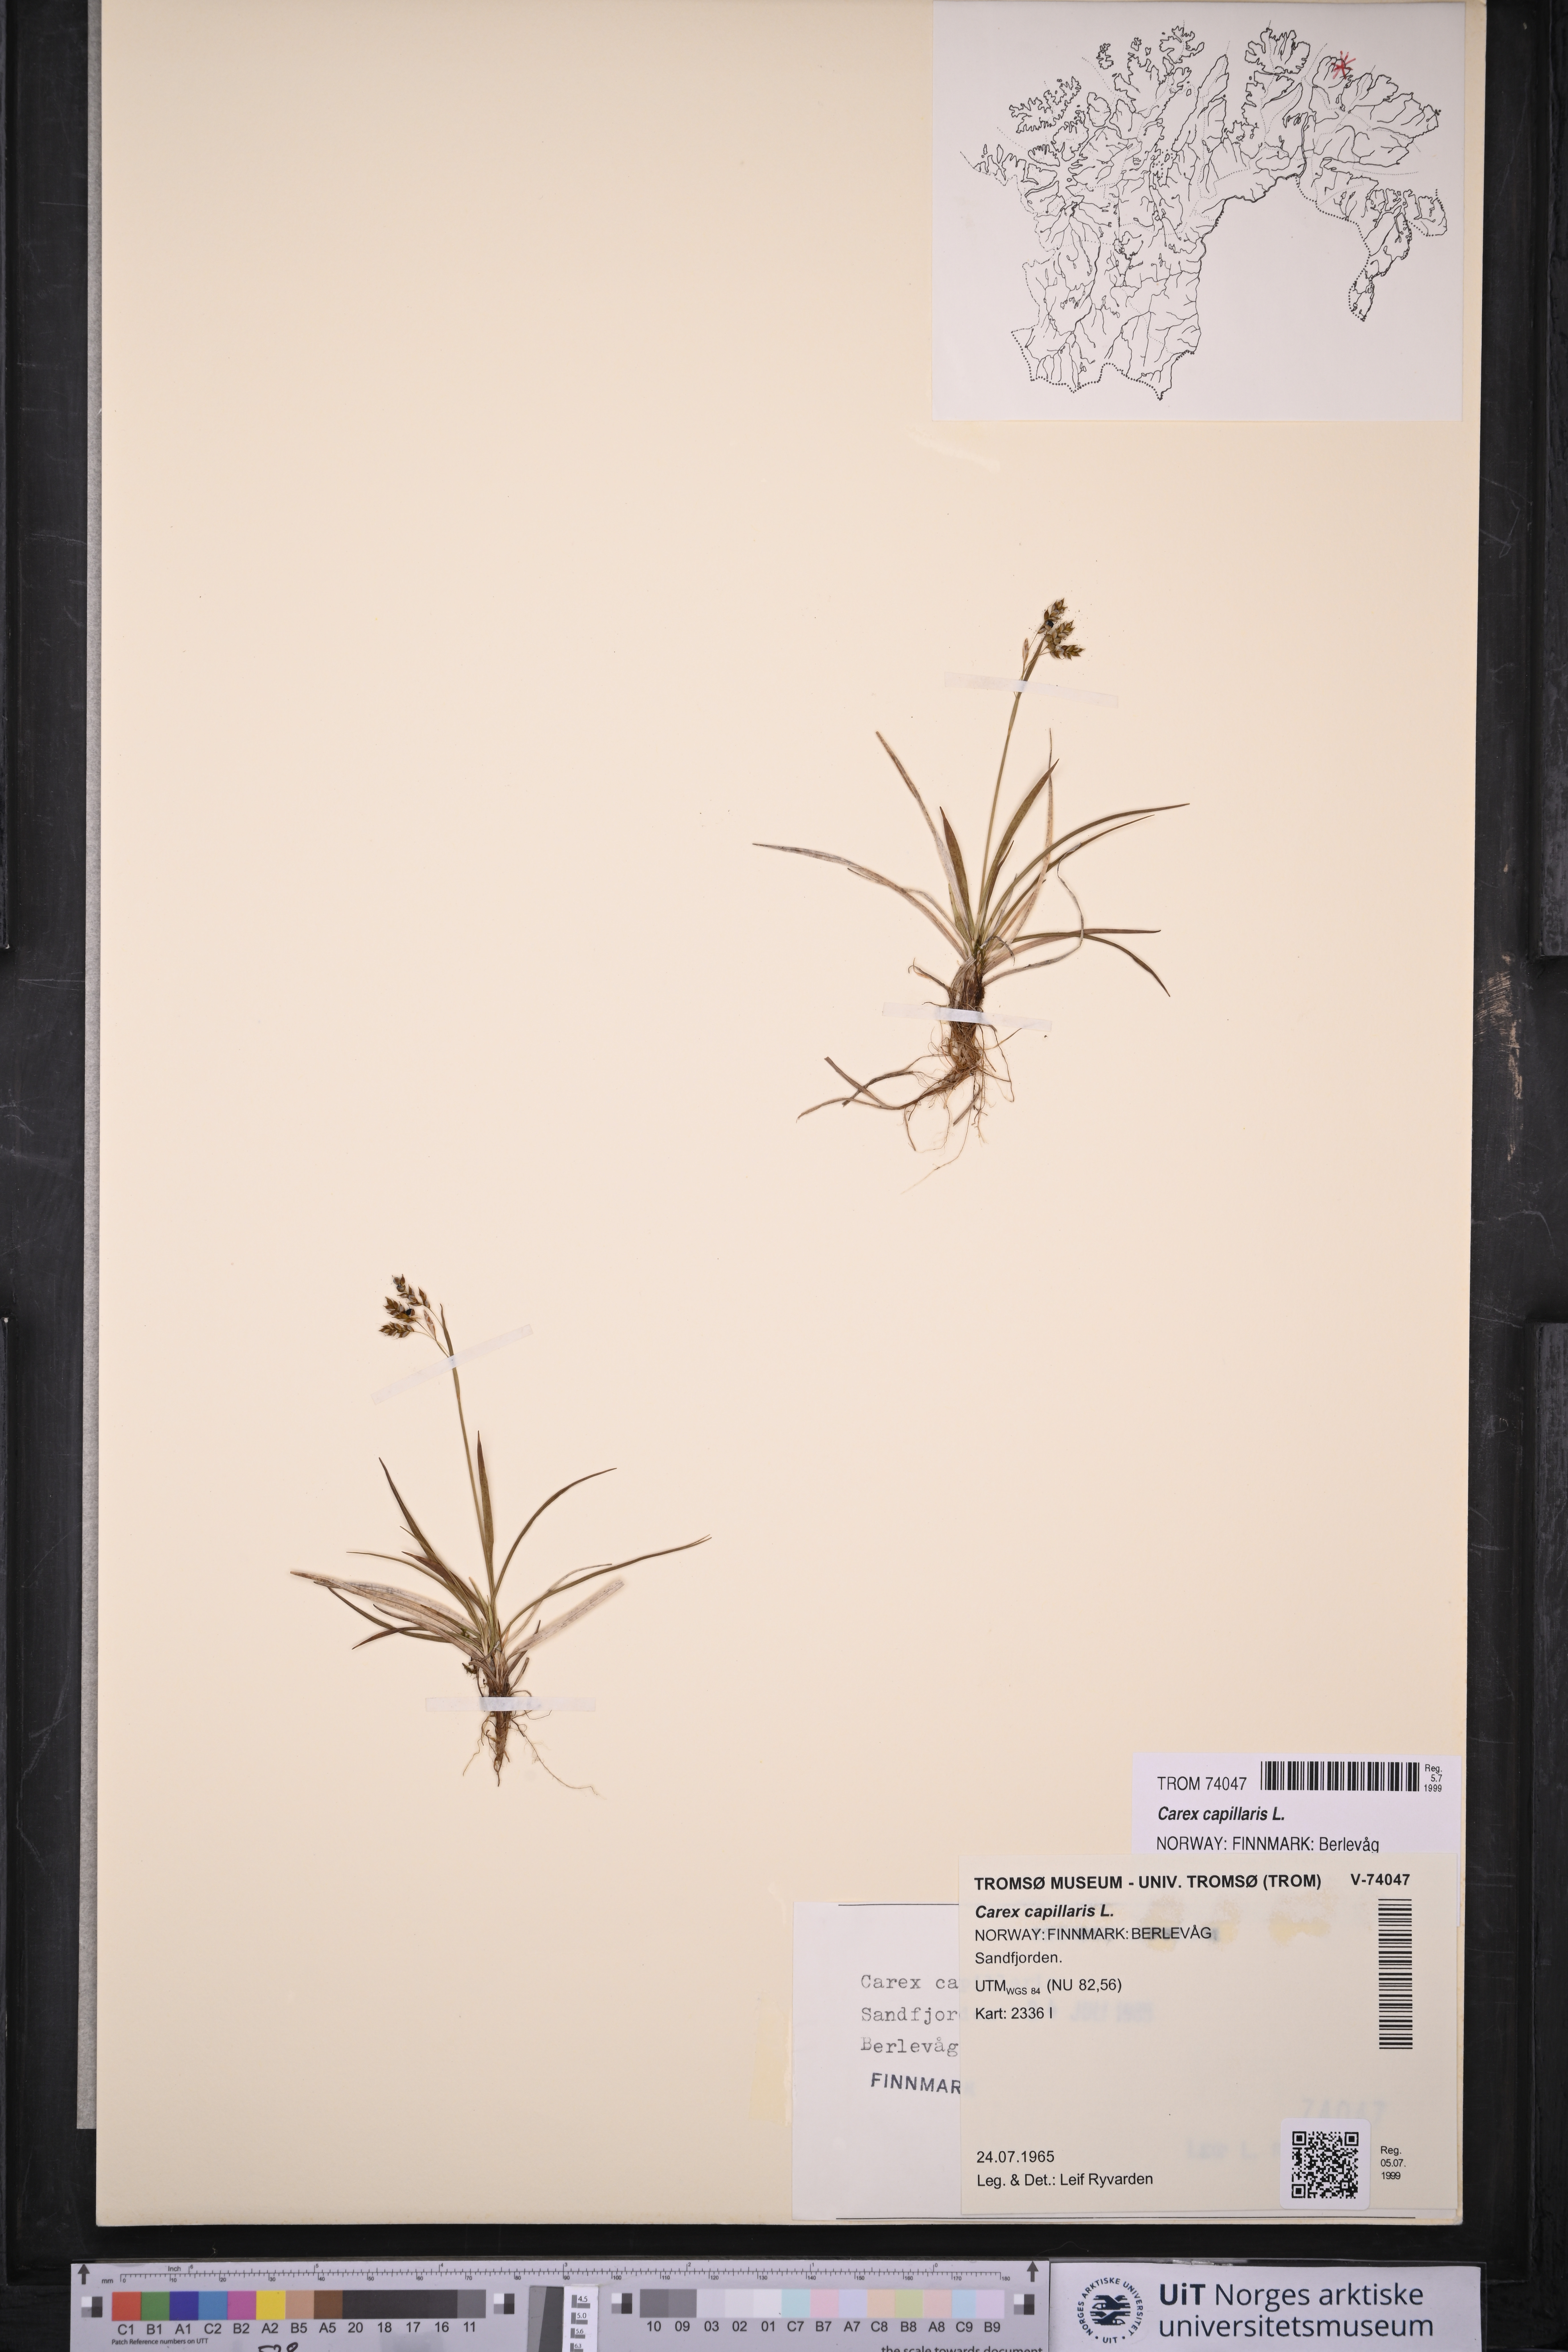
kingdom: Plantae
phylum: Tracheophyta
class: Liliopsida
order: Poales
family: Cyperaceae
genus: Carex
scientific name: Carex capillaris
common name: Hair sedge
